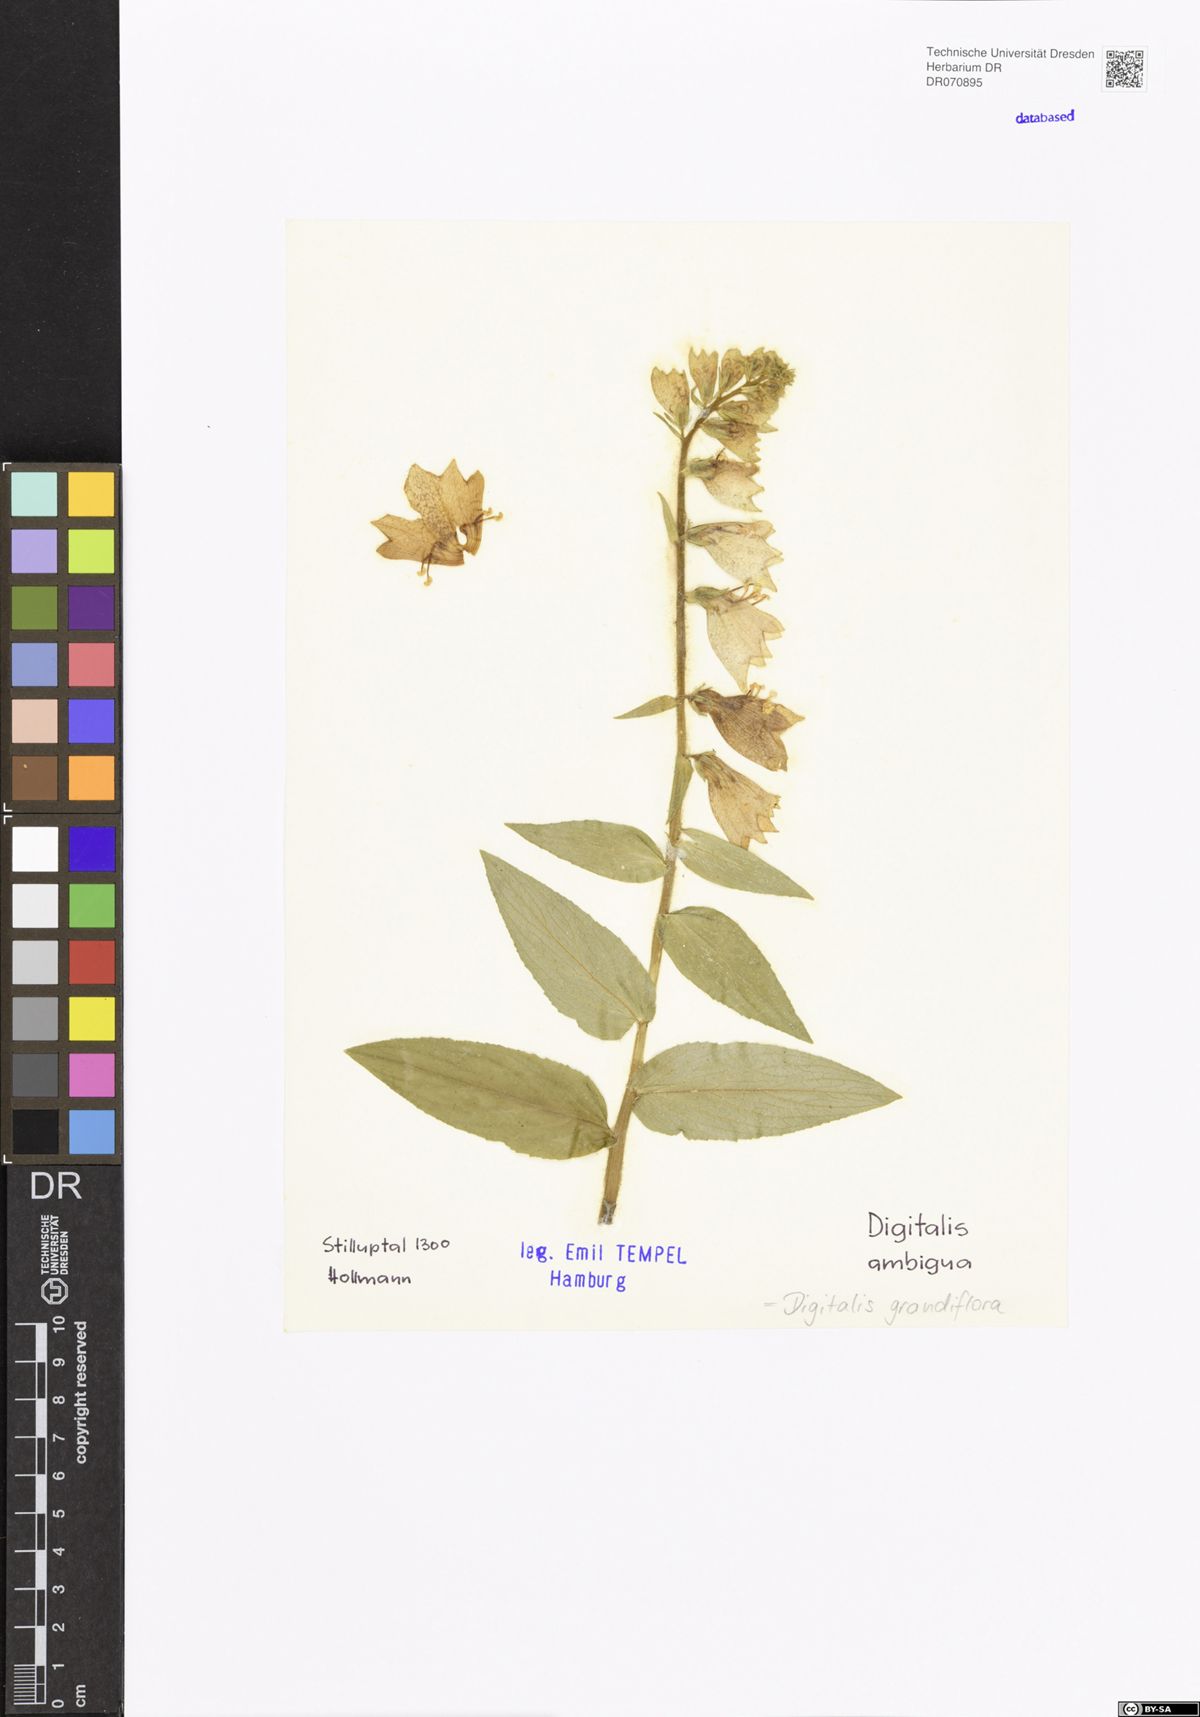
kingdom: Plantae
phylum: Tracheophyta
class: Magnoliopsida
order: Lamiales
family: Plantaginaceae
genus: Digitalis
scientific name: Digitalis grandiflora
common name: Yellow foxglove
